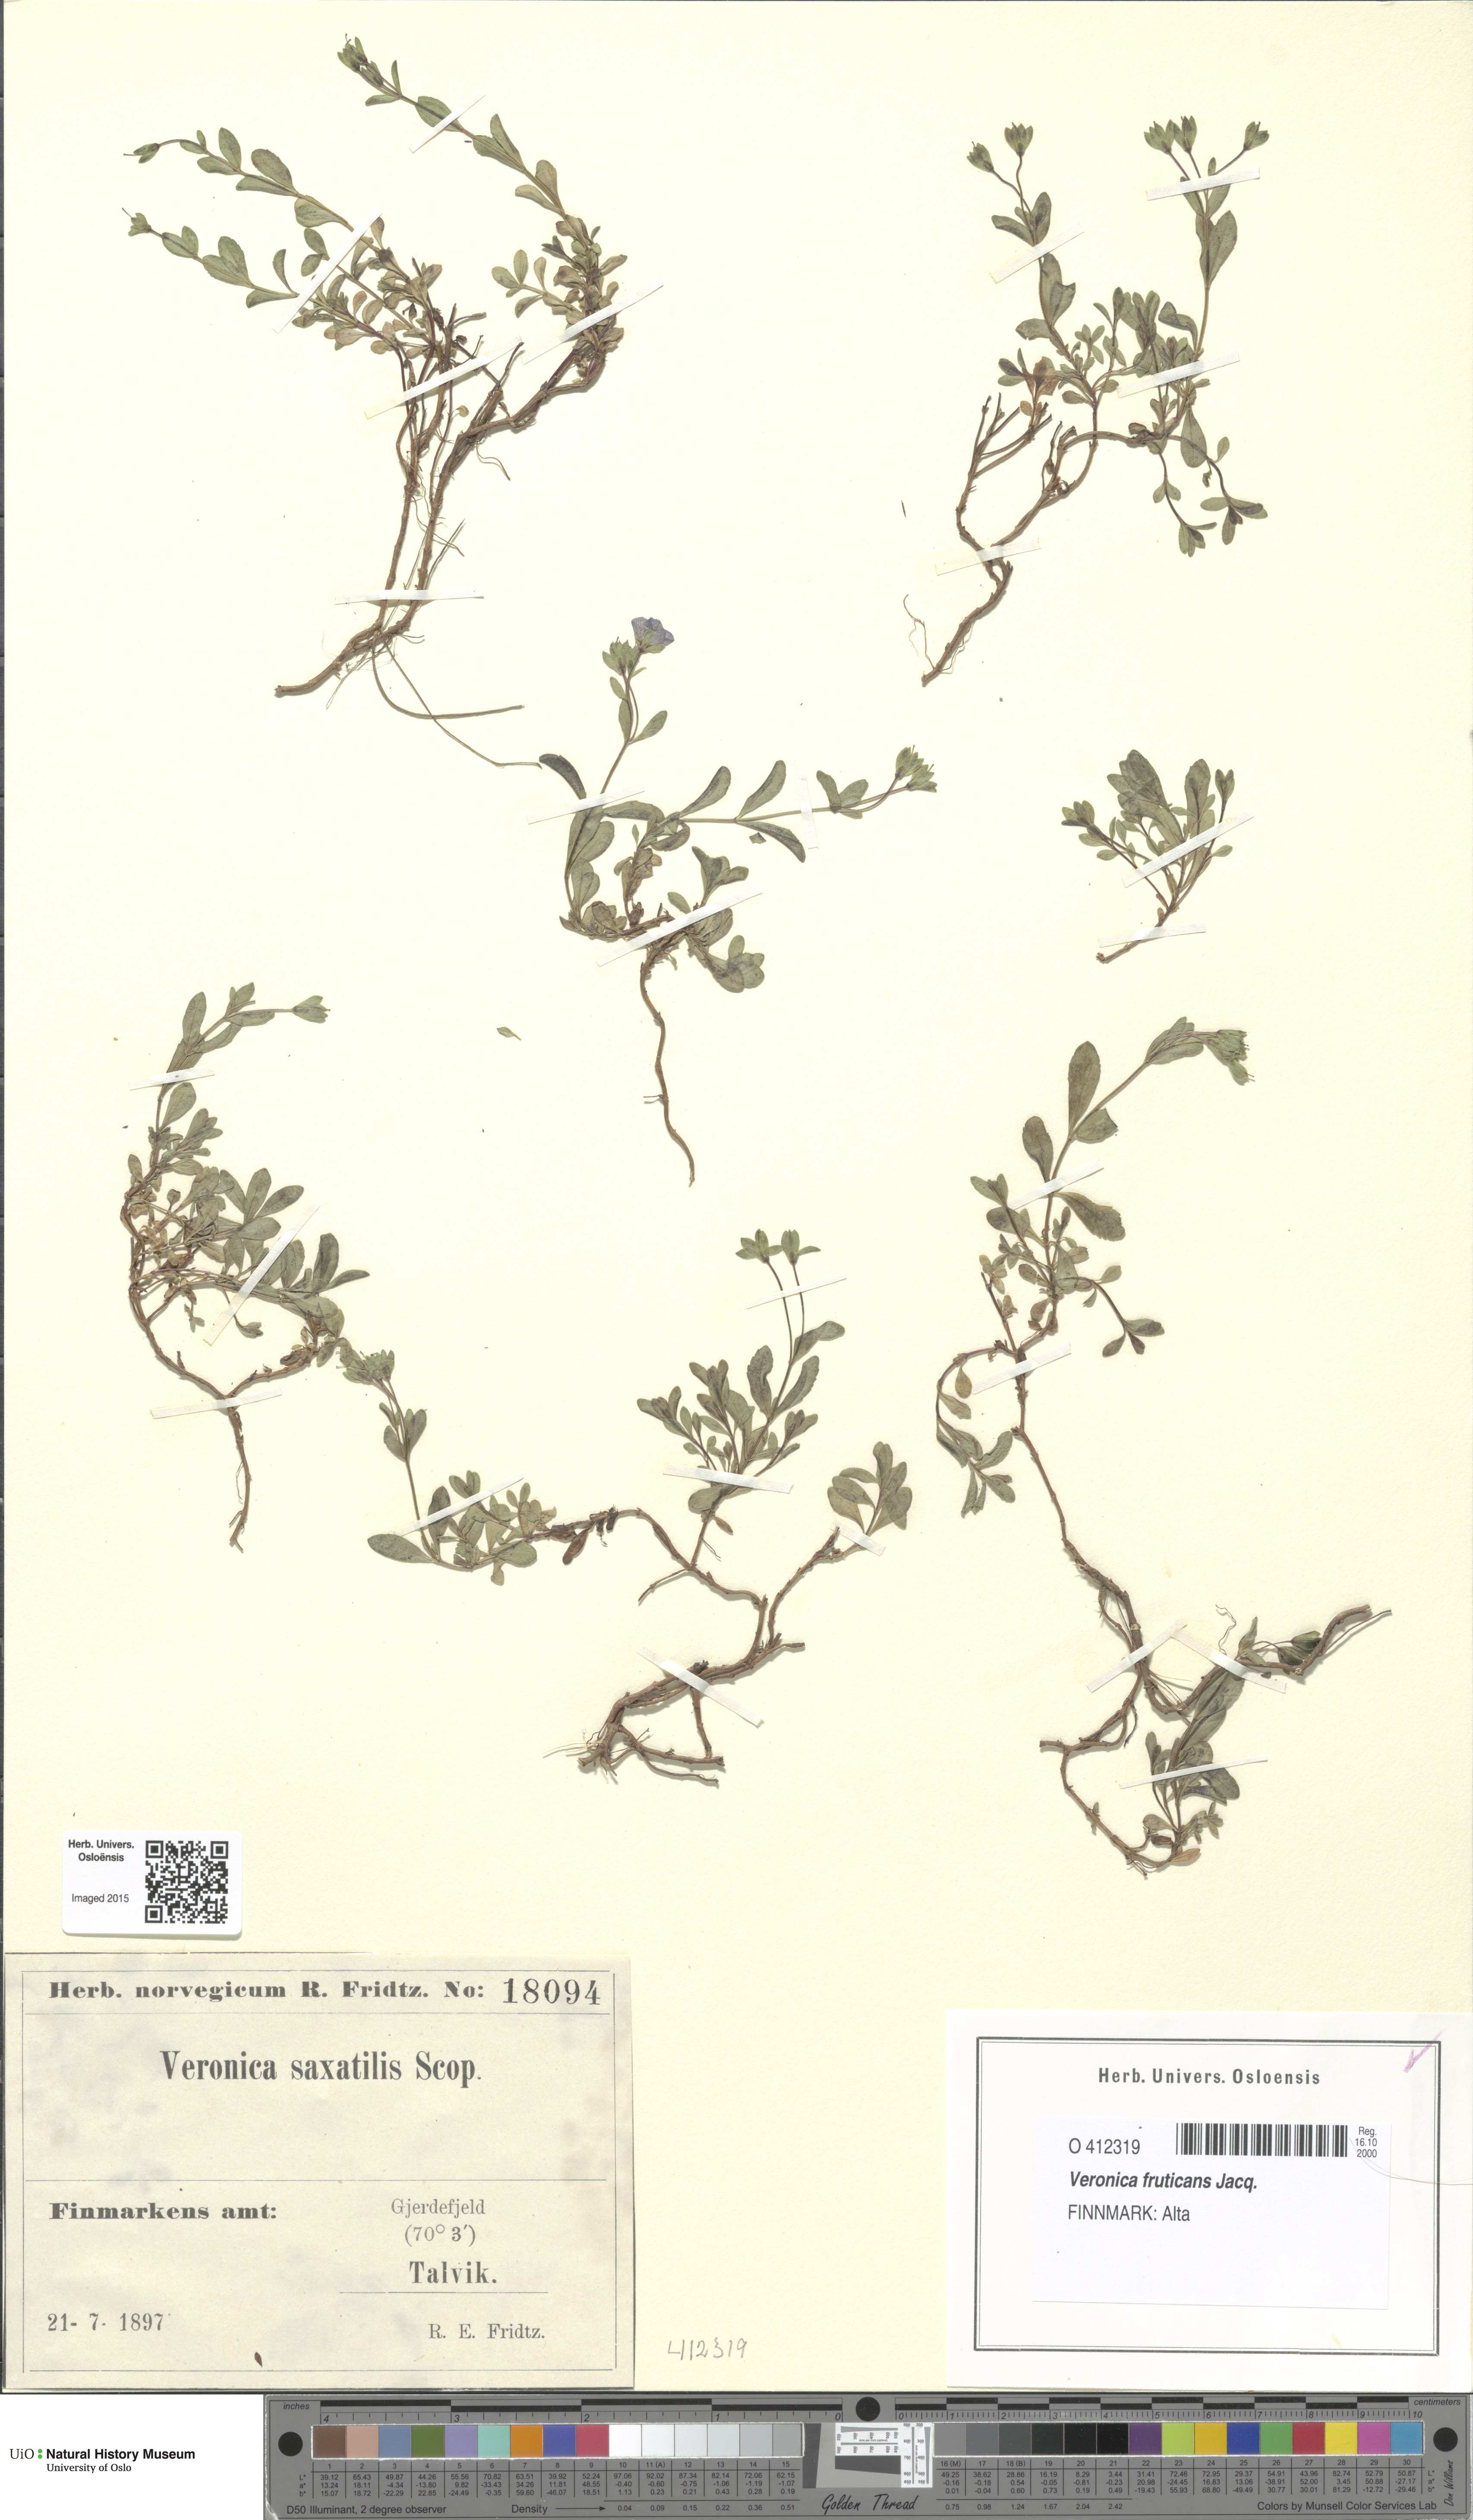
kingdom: Plantae
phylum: Tracheophyta
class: Magnoliopsida
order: Lamiales
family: Plantaginaceae
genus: Veronica
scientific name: Veronica fruticans
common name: Rock speedwell
